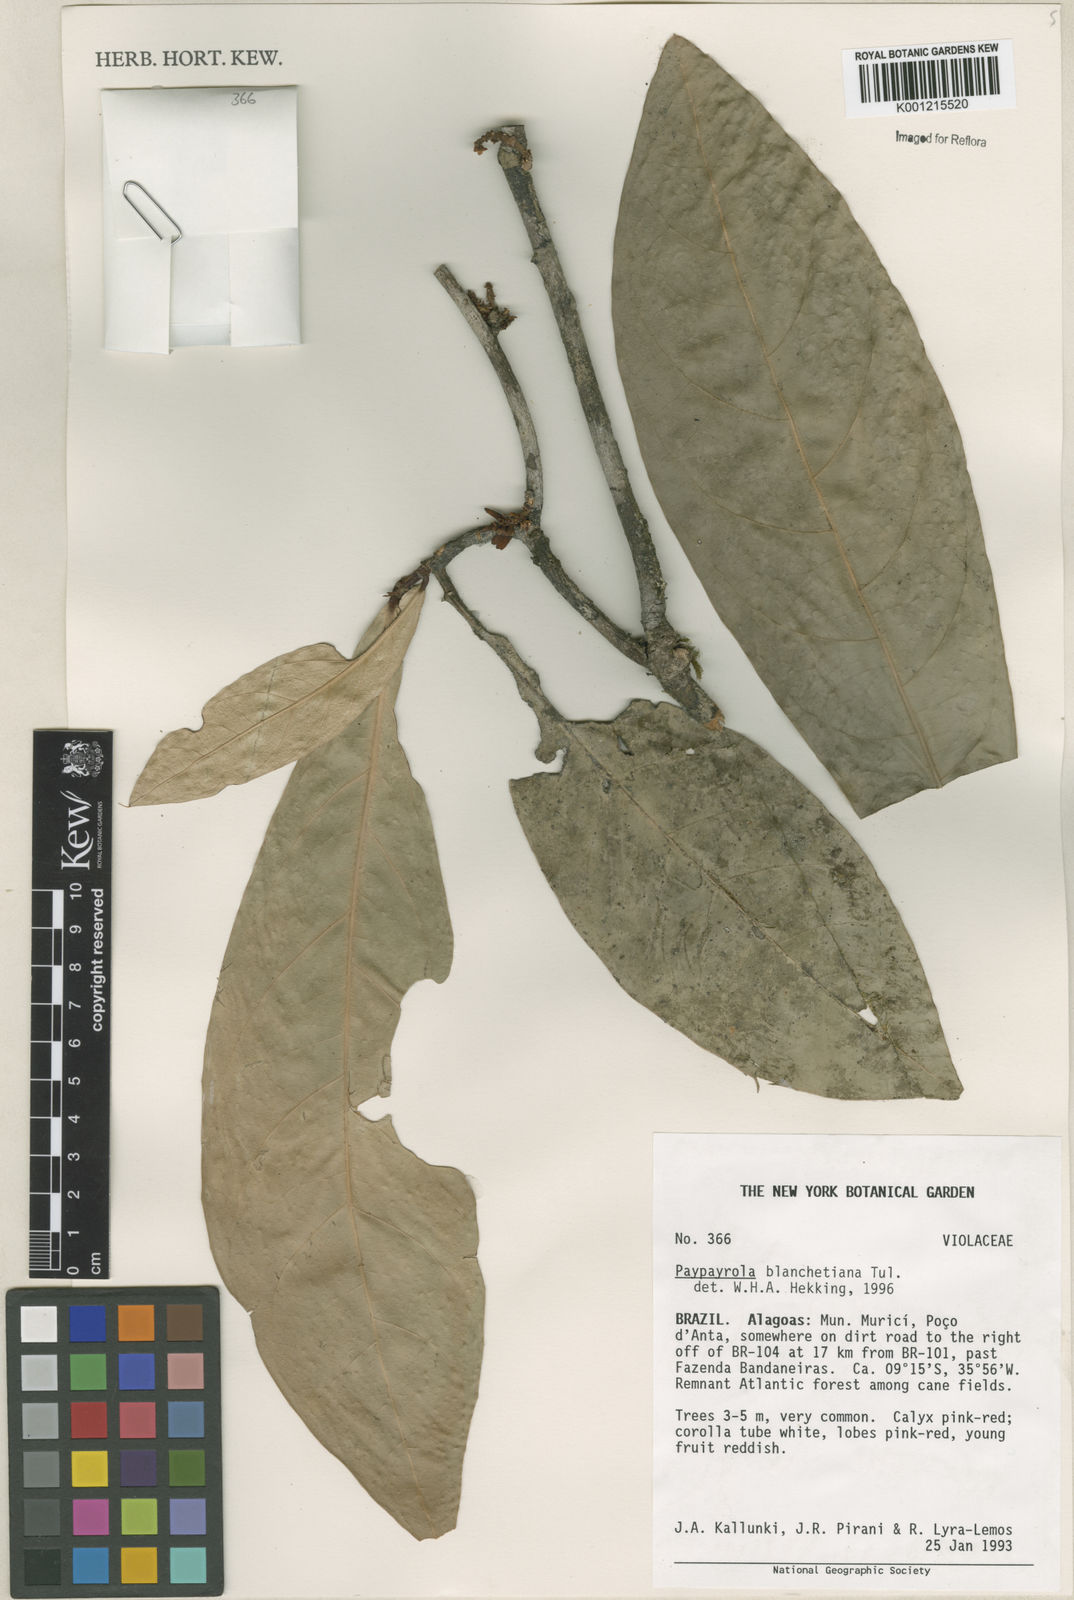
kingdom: Plantae
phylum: Tracheophyta
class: Magnoliopsida
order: Malpighiales
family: Violaceae
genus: Paypayrola
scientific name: Paypayrola blanchetiana
